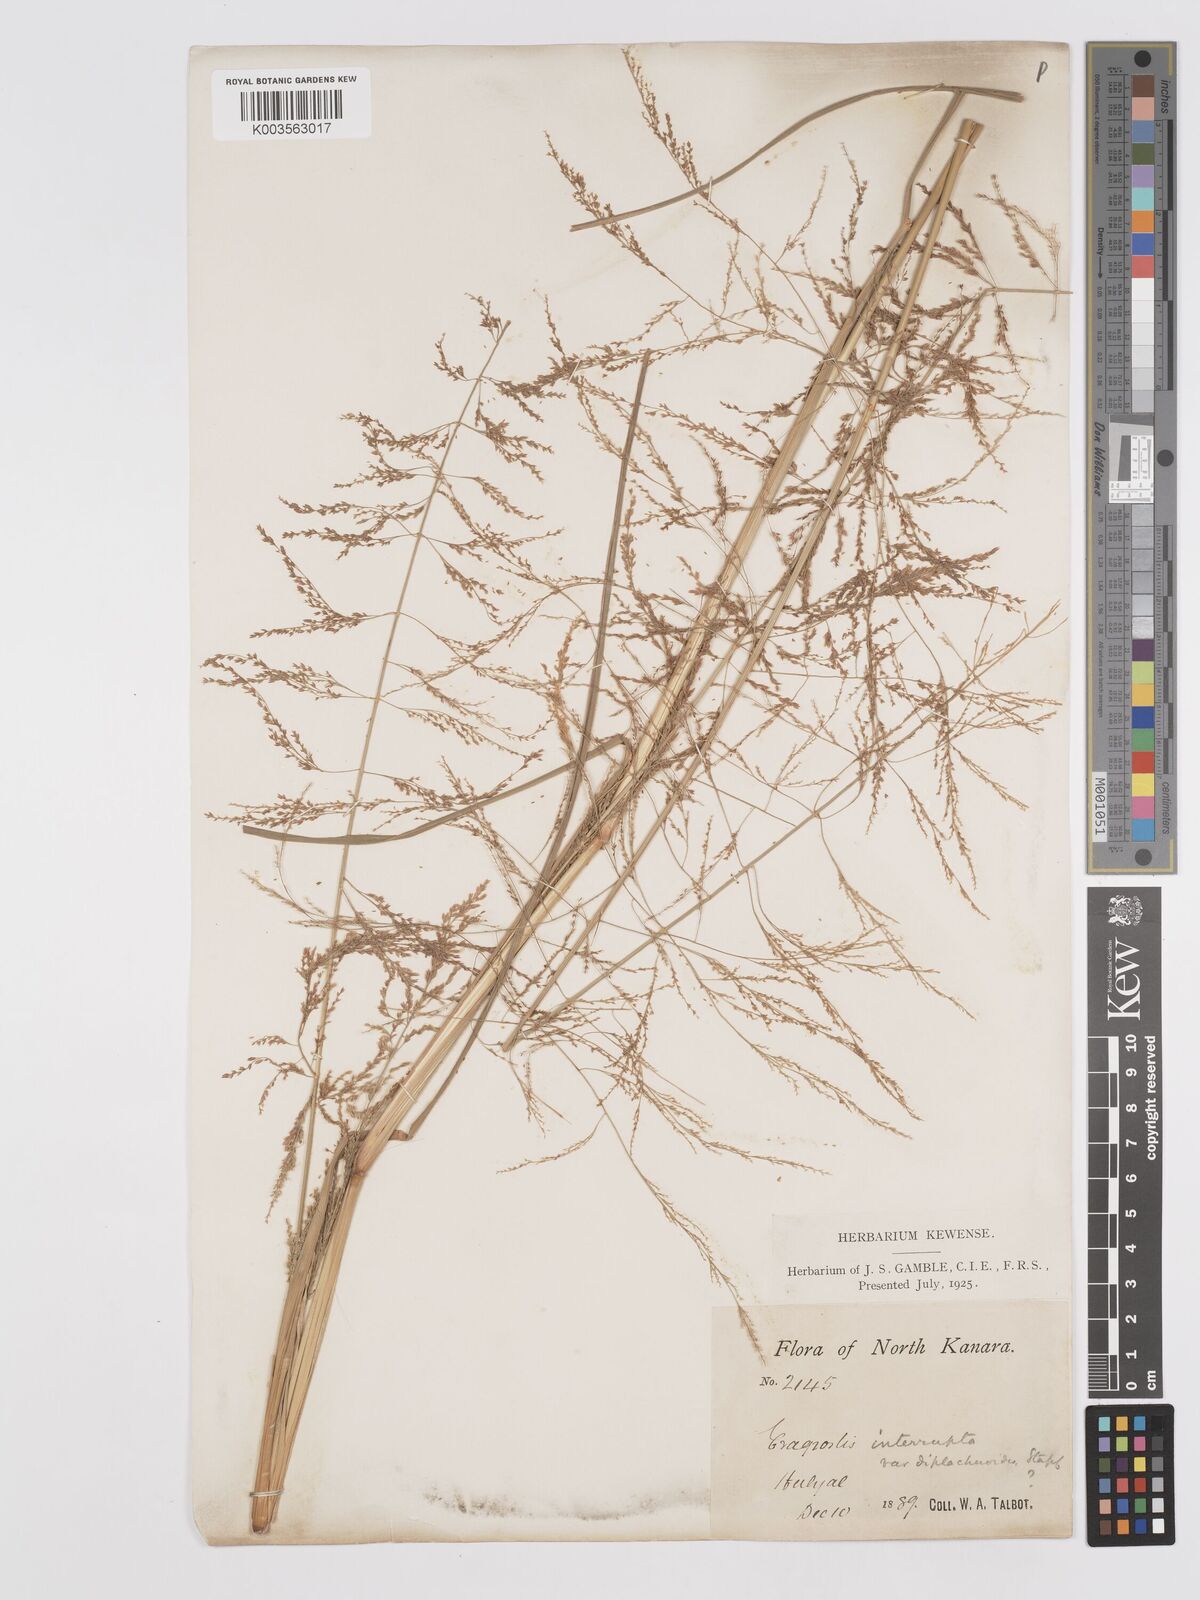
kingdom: Plantae
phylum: Tracheophyta
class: Liliopsida
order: Poales
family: Poaceae
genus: Eragrostis
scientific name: Eragrostis japonica
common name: Pond lovegrass
